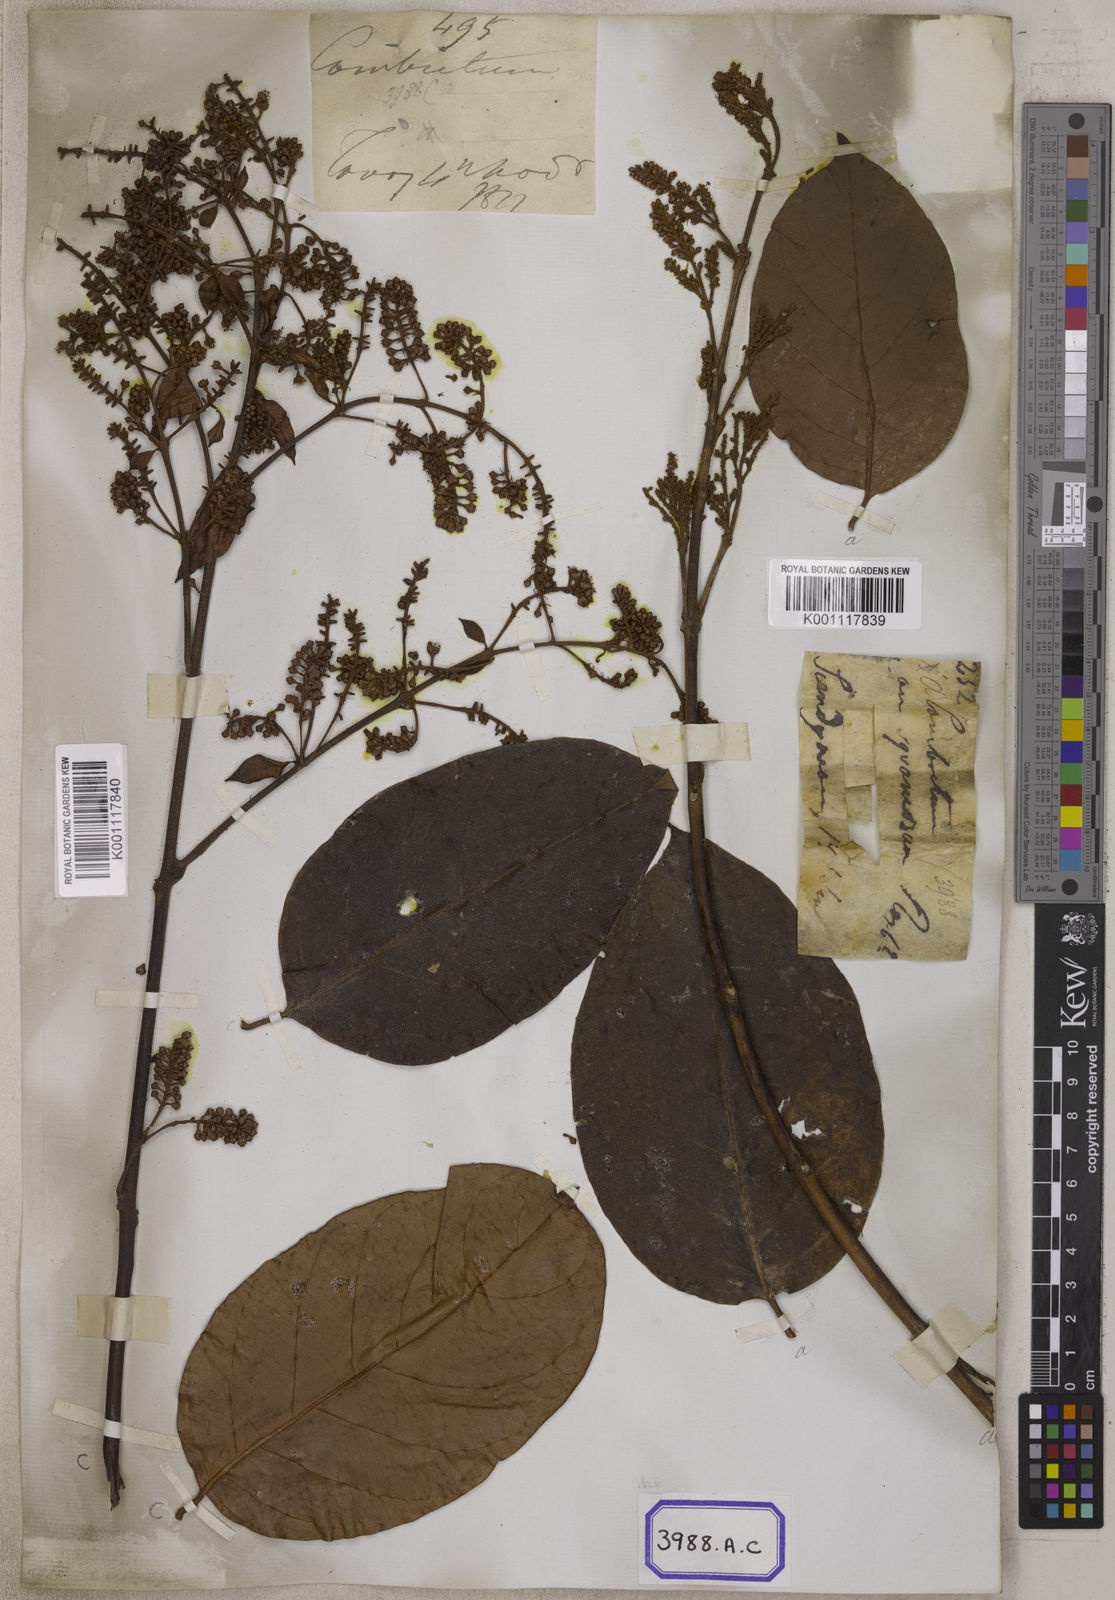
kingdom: Plantae
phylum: Tracheophyta
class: Magnoliopsida
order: Myrtales
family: Combretaceae
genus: Combretum
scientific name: Combretum aureum
